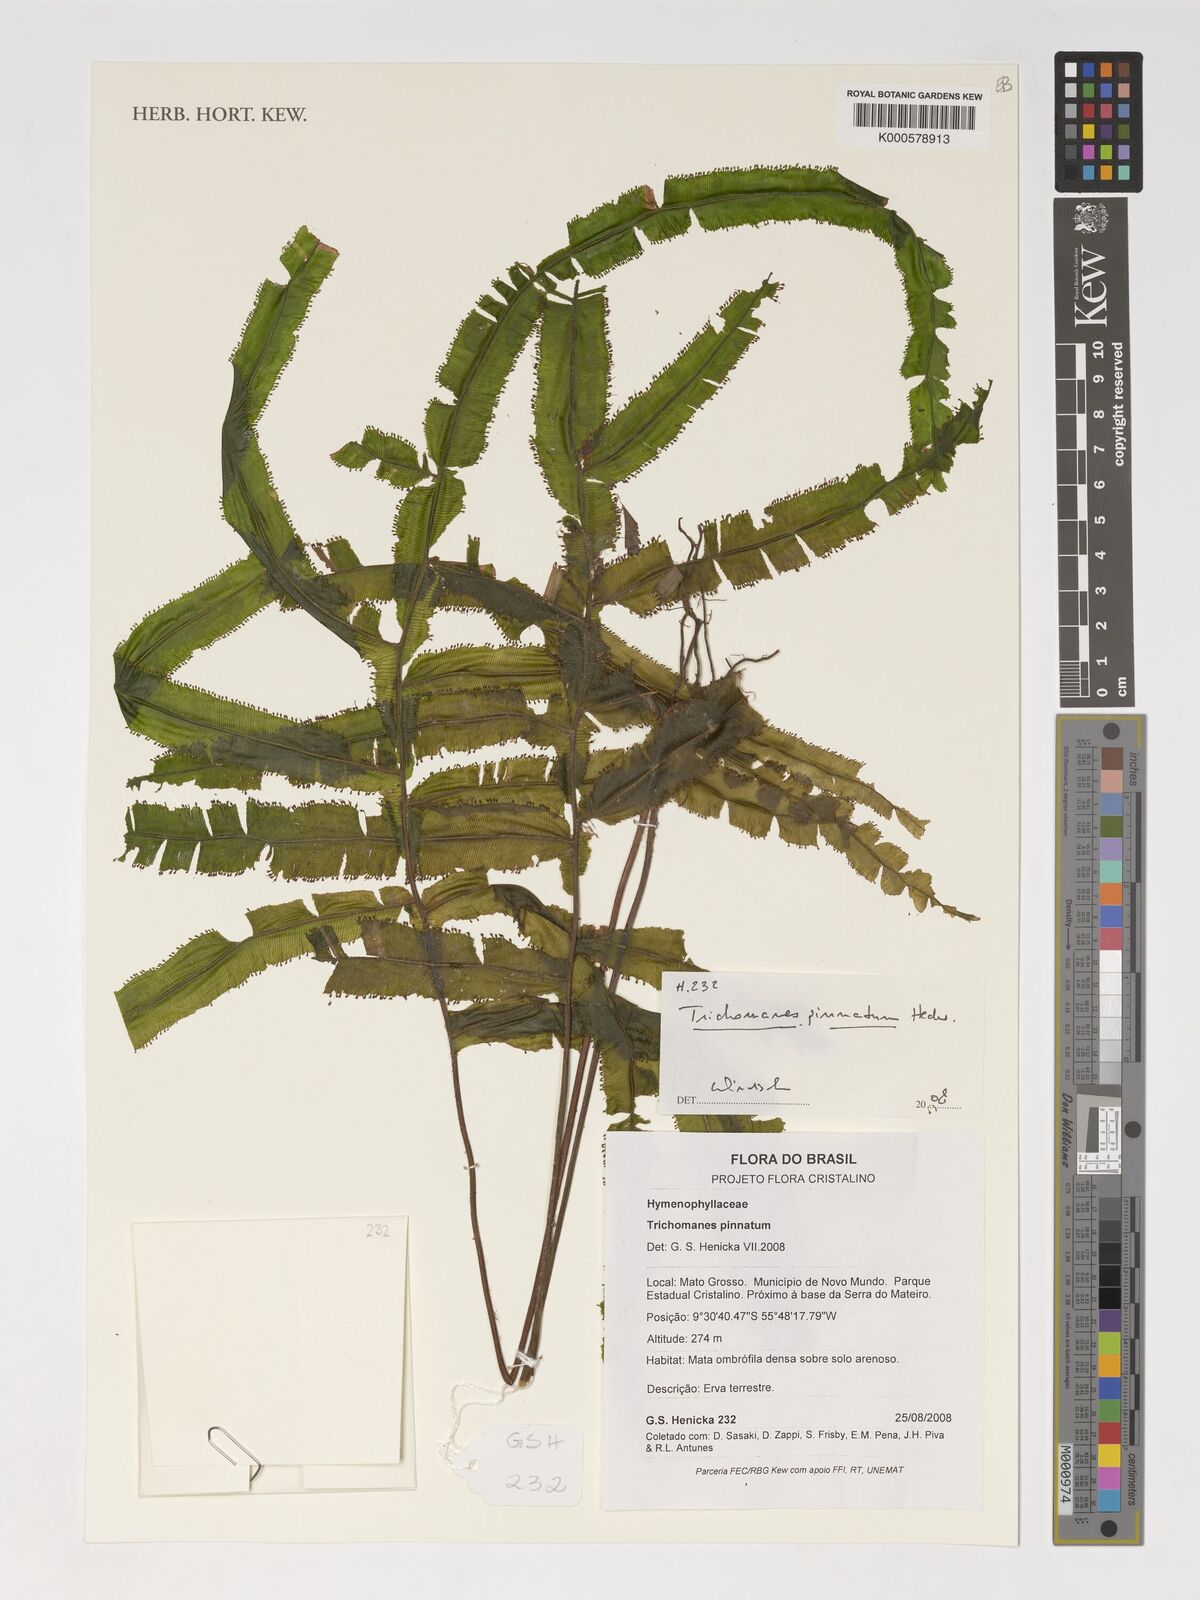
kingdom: Plantae
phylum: Tracheophyta
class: Polypodiopsida
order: Hymenophyllales
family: Hymenophyllaceae
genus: Trichomanes
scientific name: Trichomanes pinnatum
